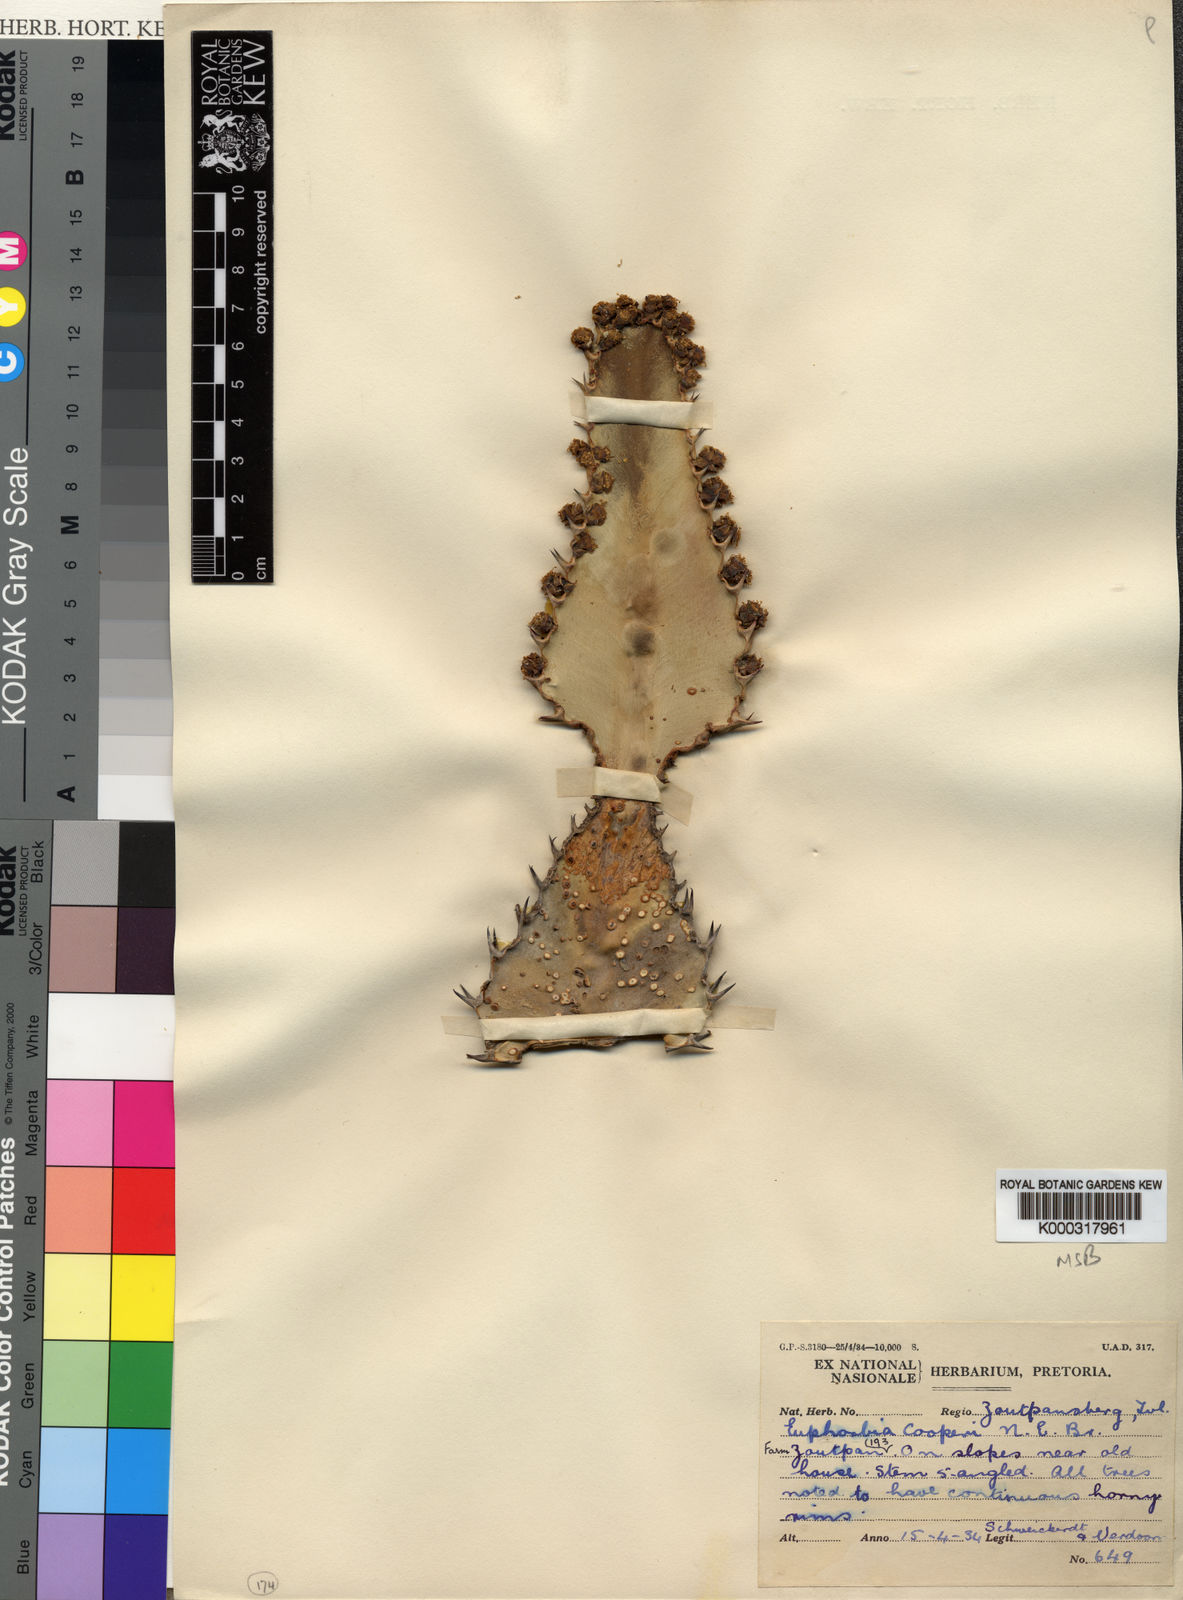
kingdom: Plantae
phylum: Tracheophyta
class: Magnoliopsida
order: Malpighiales
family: Euphorbiaceae
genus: Euphorbia
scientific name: Euphorbia cooperi
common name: Candelabra tree
